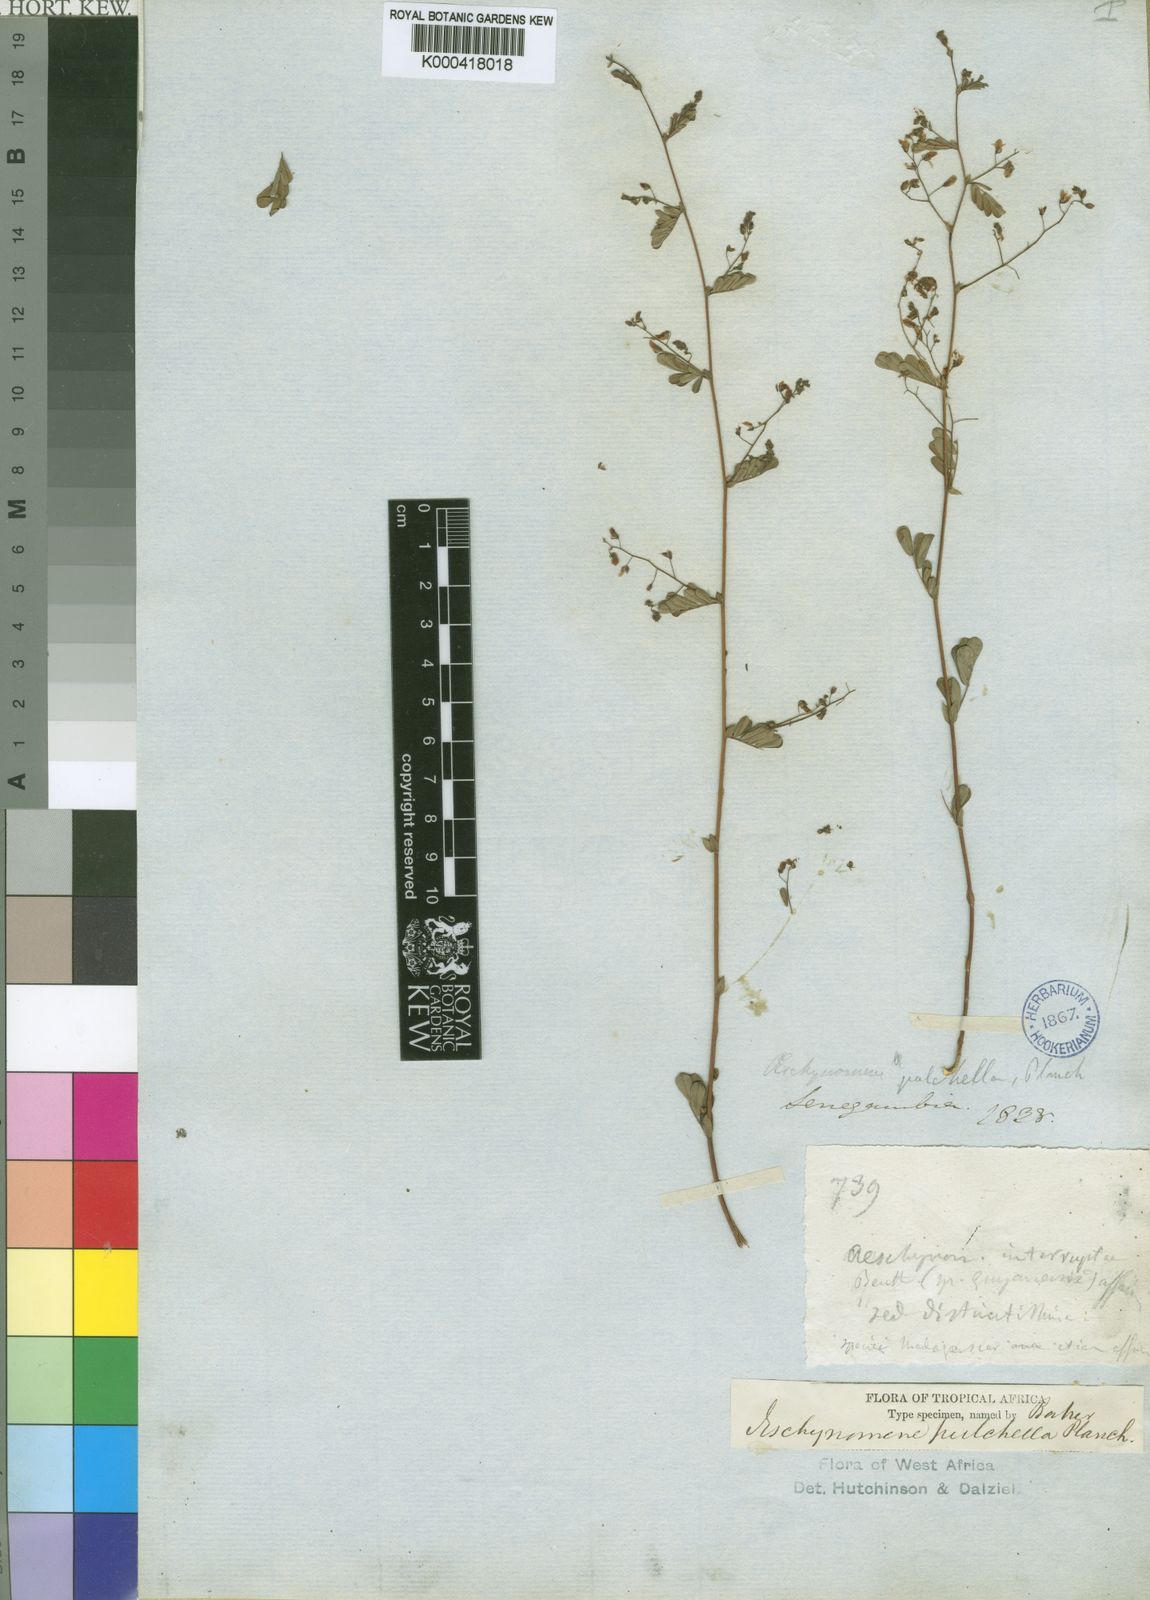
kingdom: Plantae
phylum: Tracheophyta
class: Magnoliopsida
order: Fabales
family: Fabaceae
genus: Aeschynomene
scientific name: Aeschynomene pulchella
